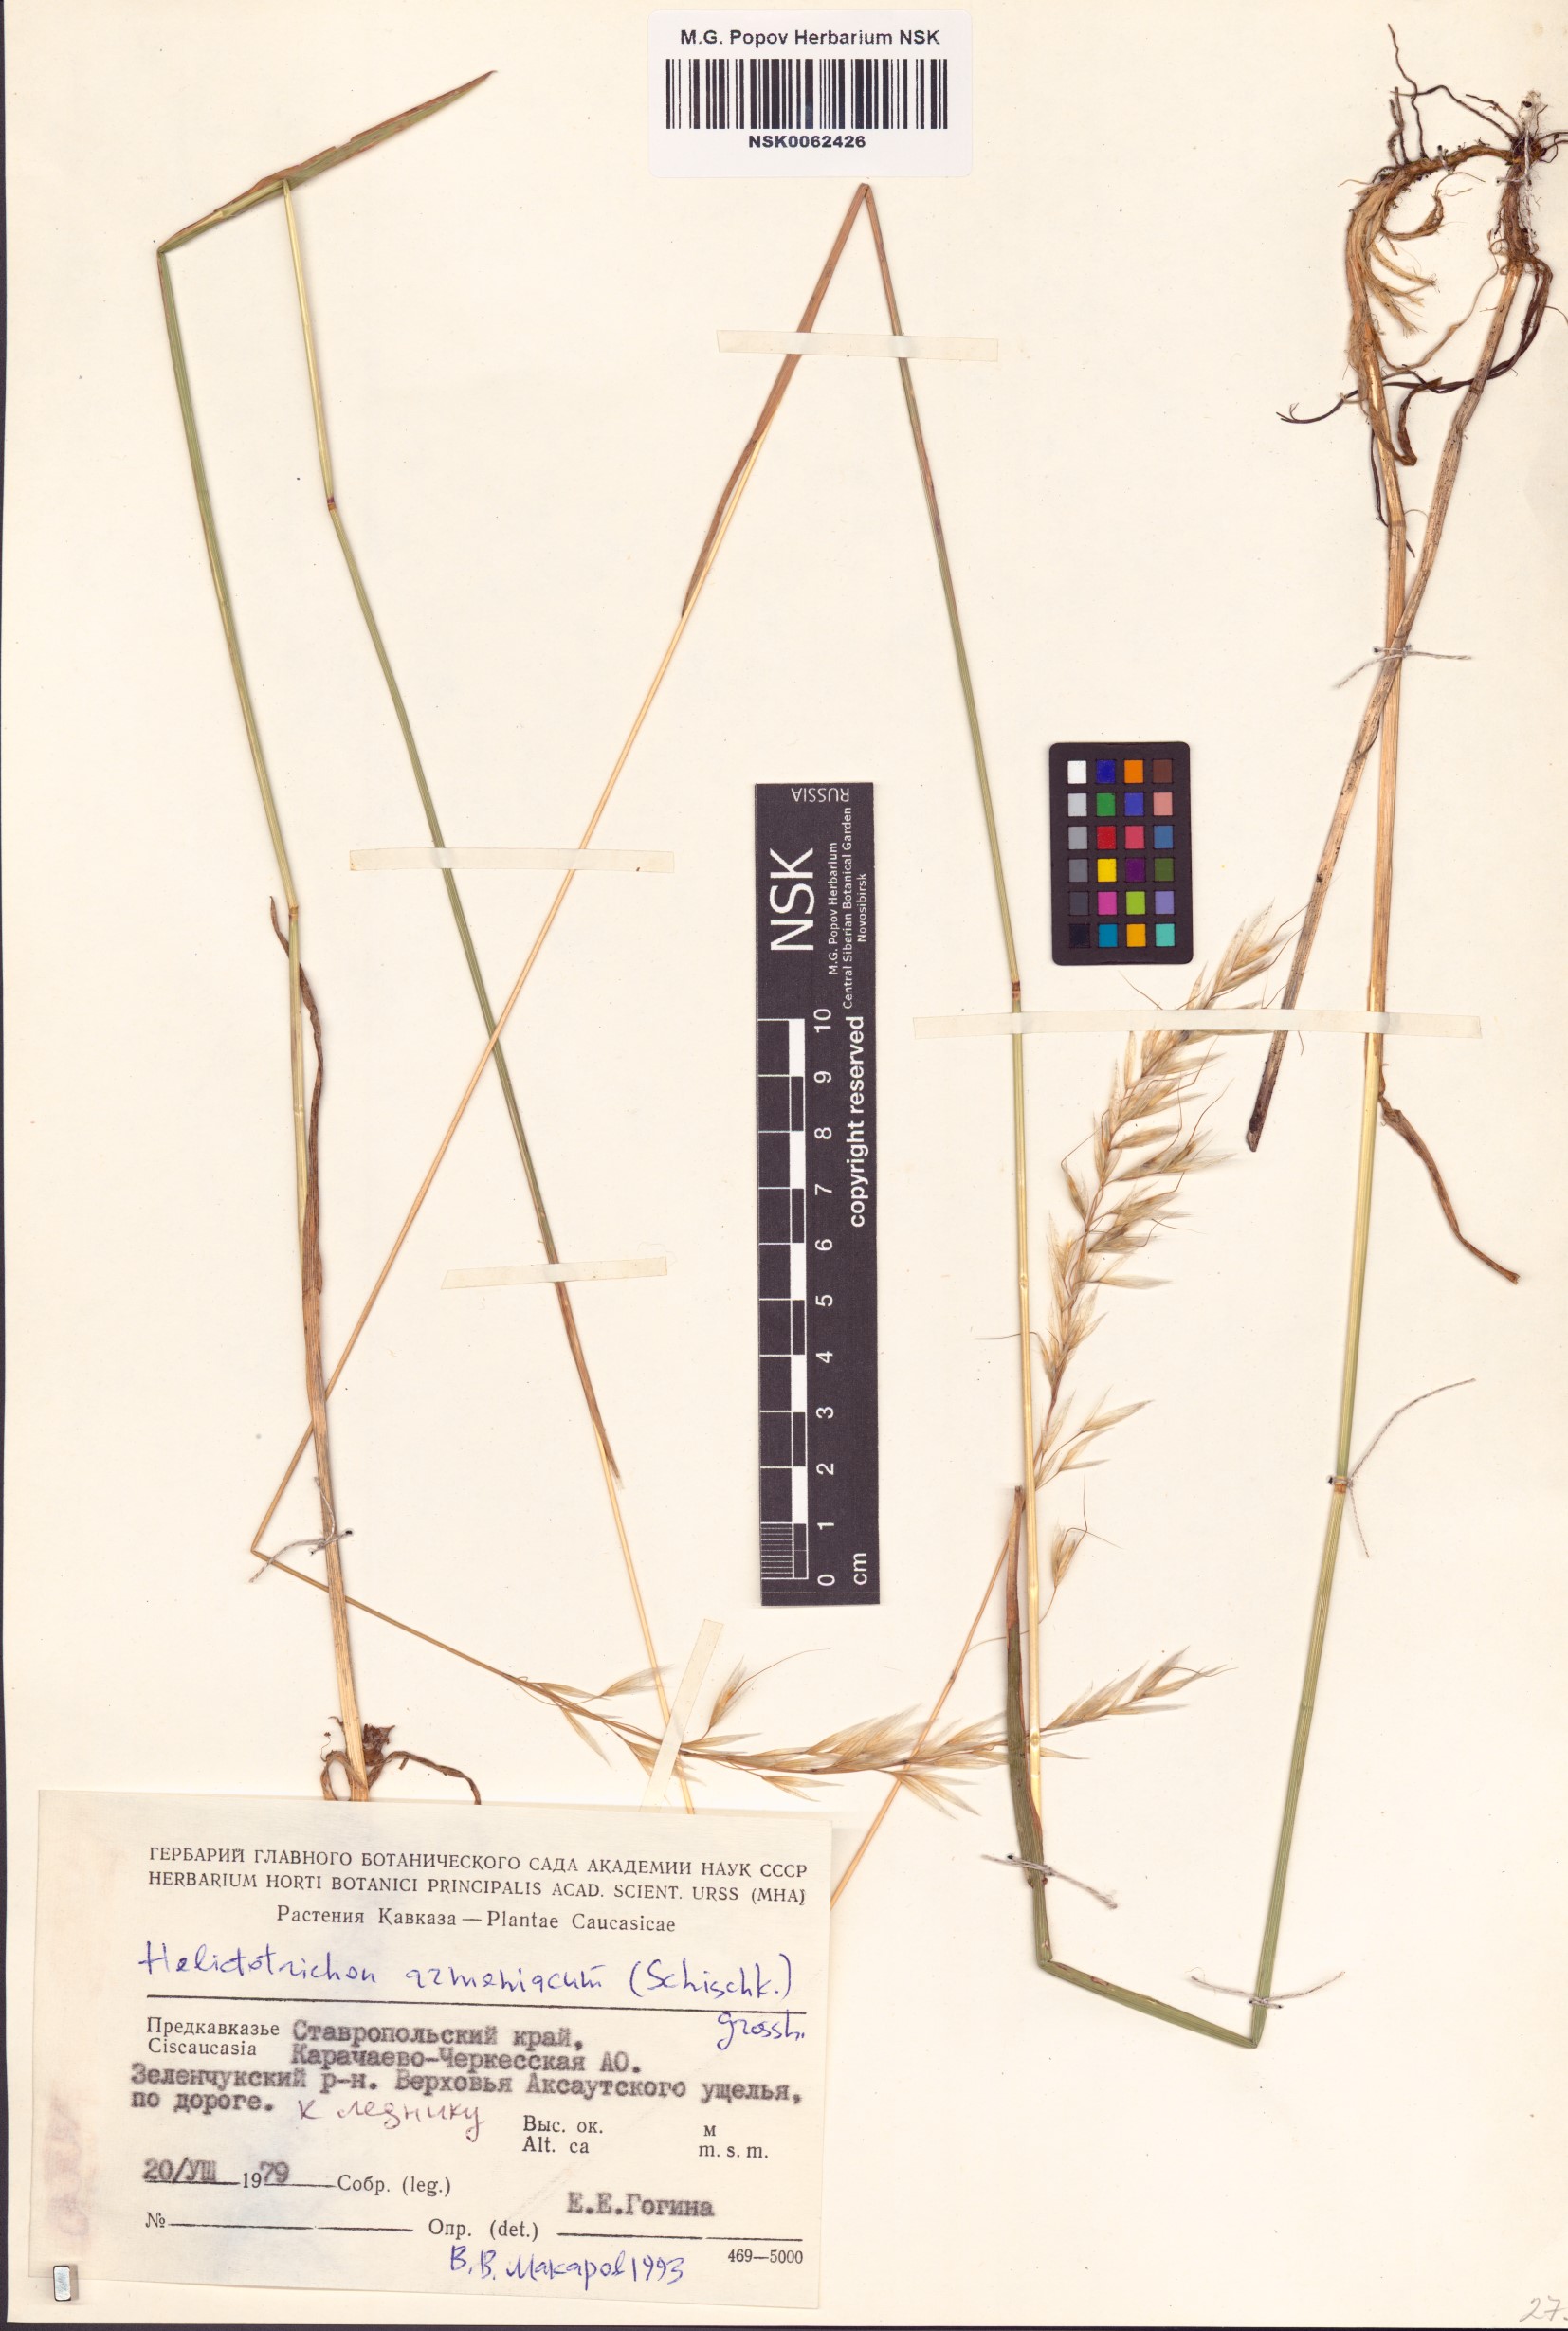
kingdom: Plantae
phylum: Tracheophyta
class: Liliopsida
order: Poales
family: Poaceae
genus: Helictochloa
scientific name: Helictochloa armeniaca
